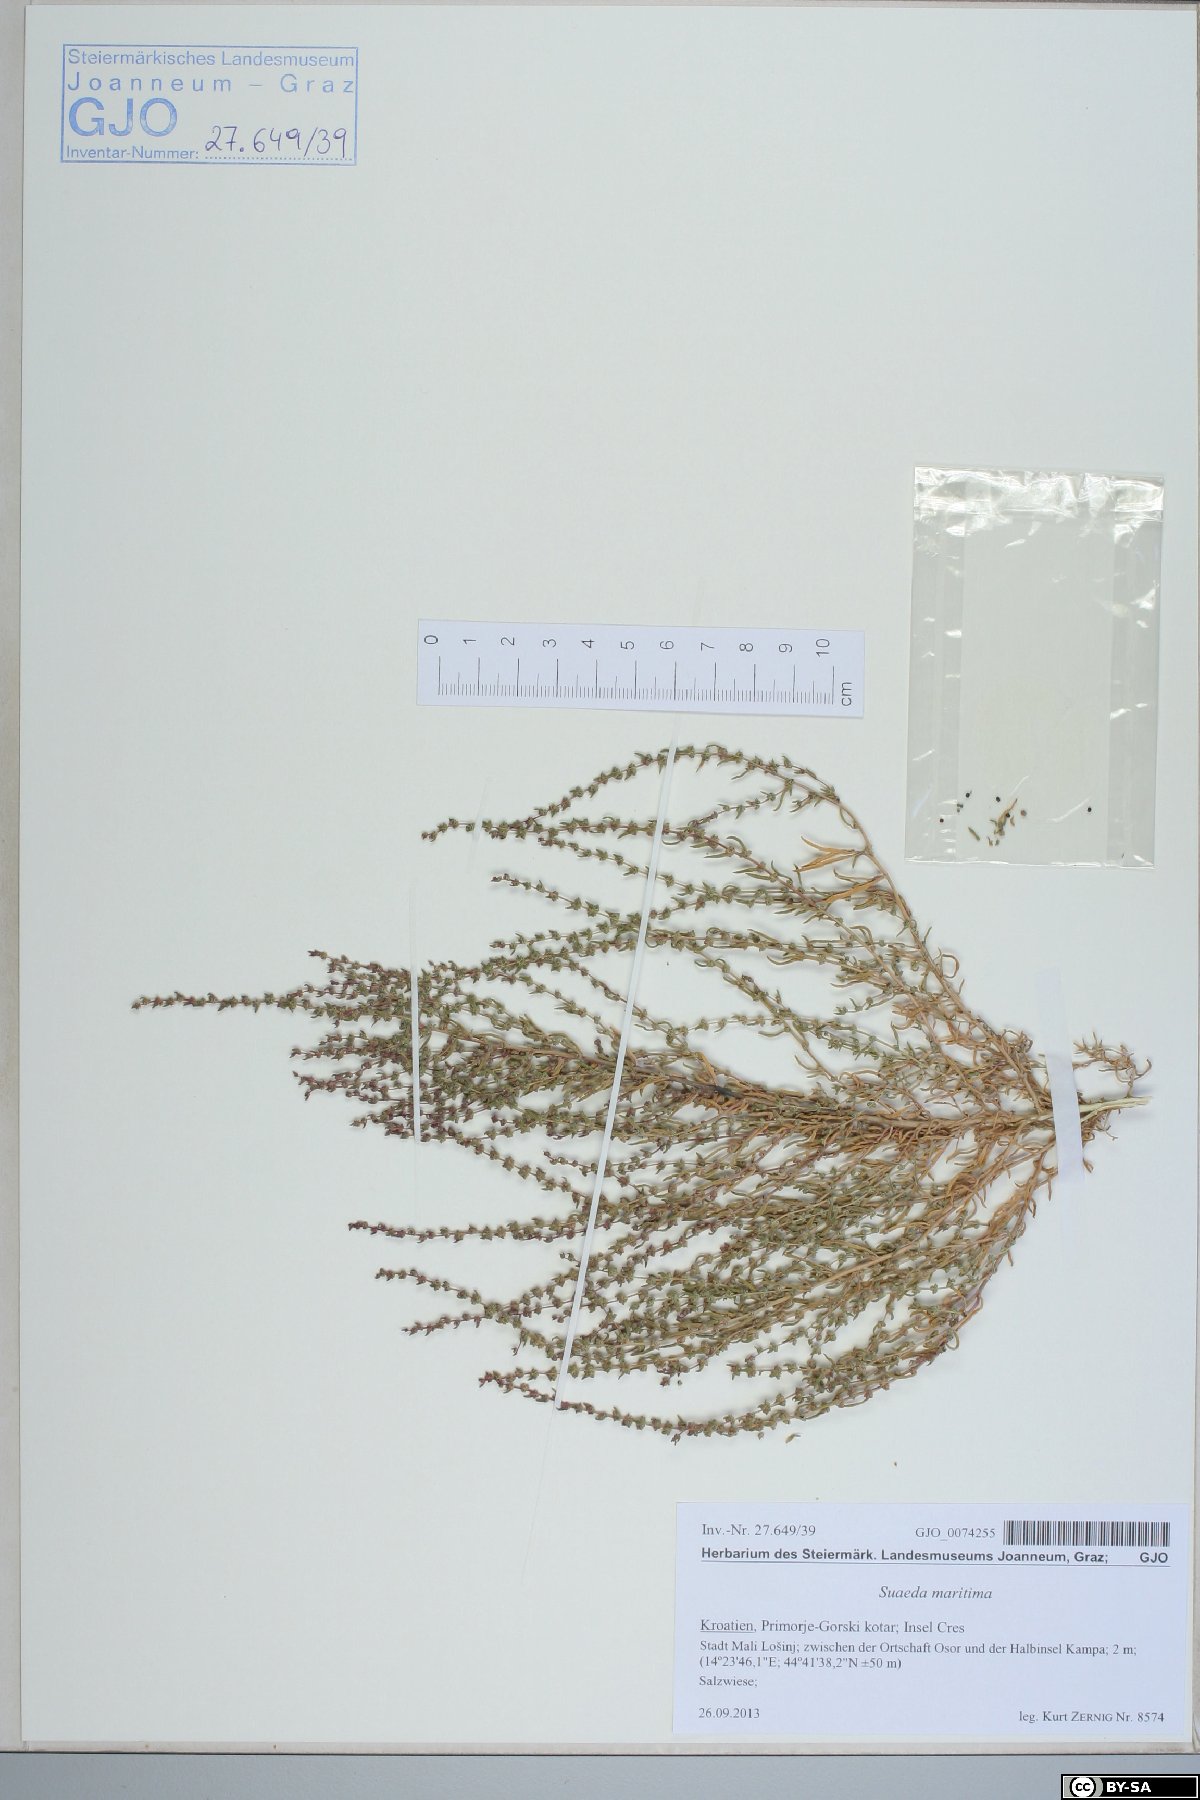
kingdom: Plantae
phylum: Tracheophyta
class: Magnoliopsida
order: Caryophyllales
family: Amaranthaceae
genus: Suaeda
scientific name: Suaeda maritima
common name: Annual sea-blite
